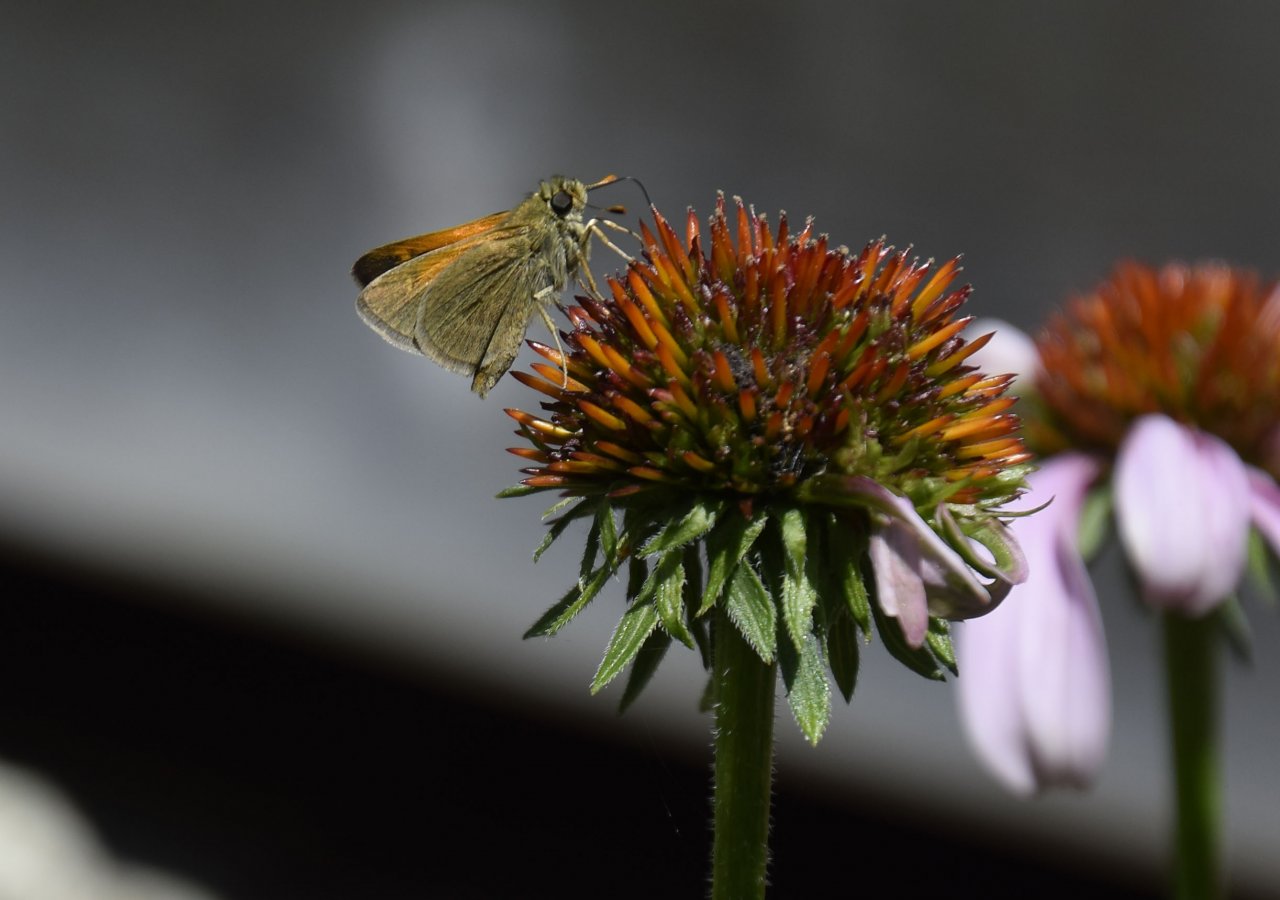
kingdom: Animalia
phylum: Arthropoda
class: Insecta
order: Lepidoptera
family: Hesperiidae
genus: Polites
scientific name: Polites themistocles
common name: Tawny-edged Skipper
